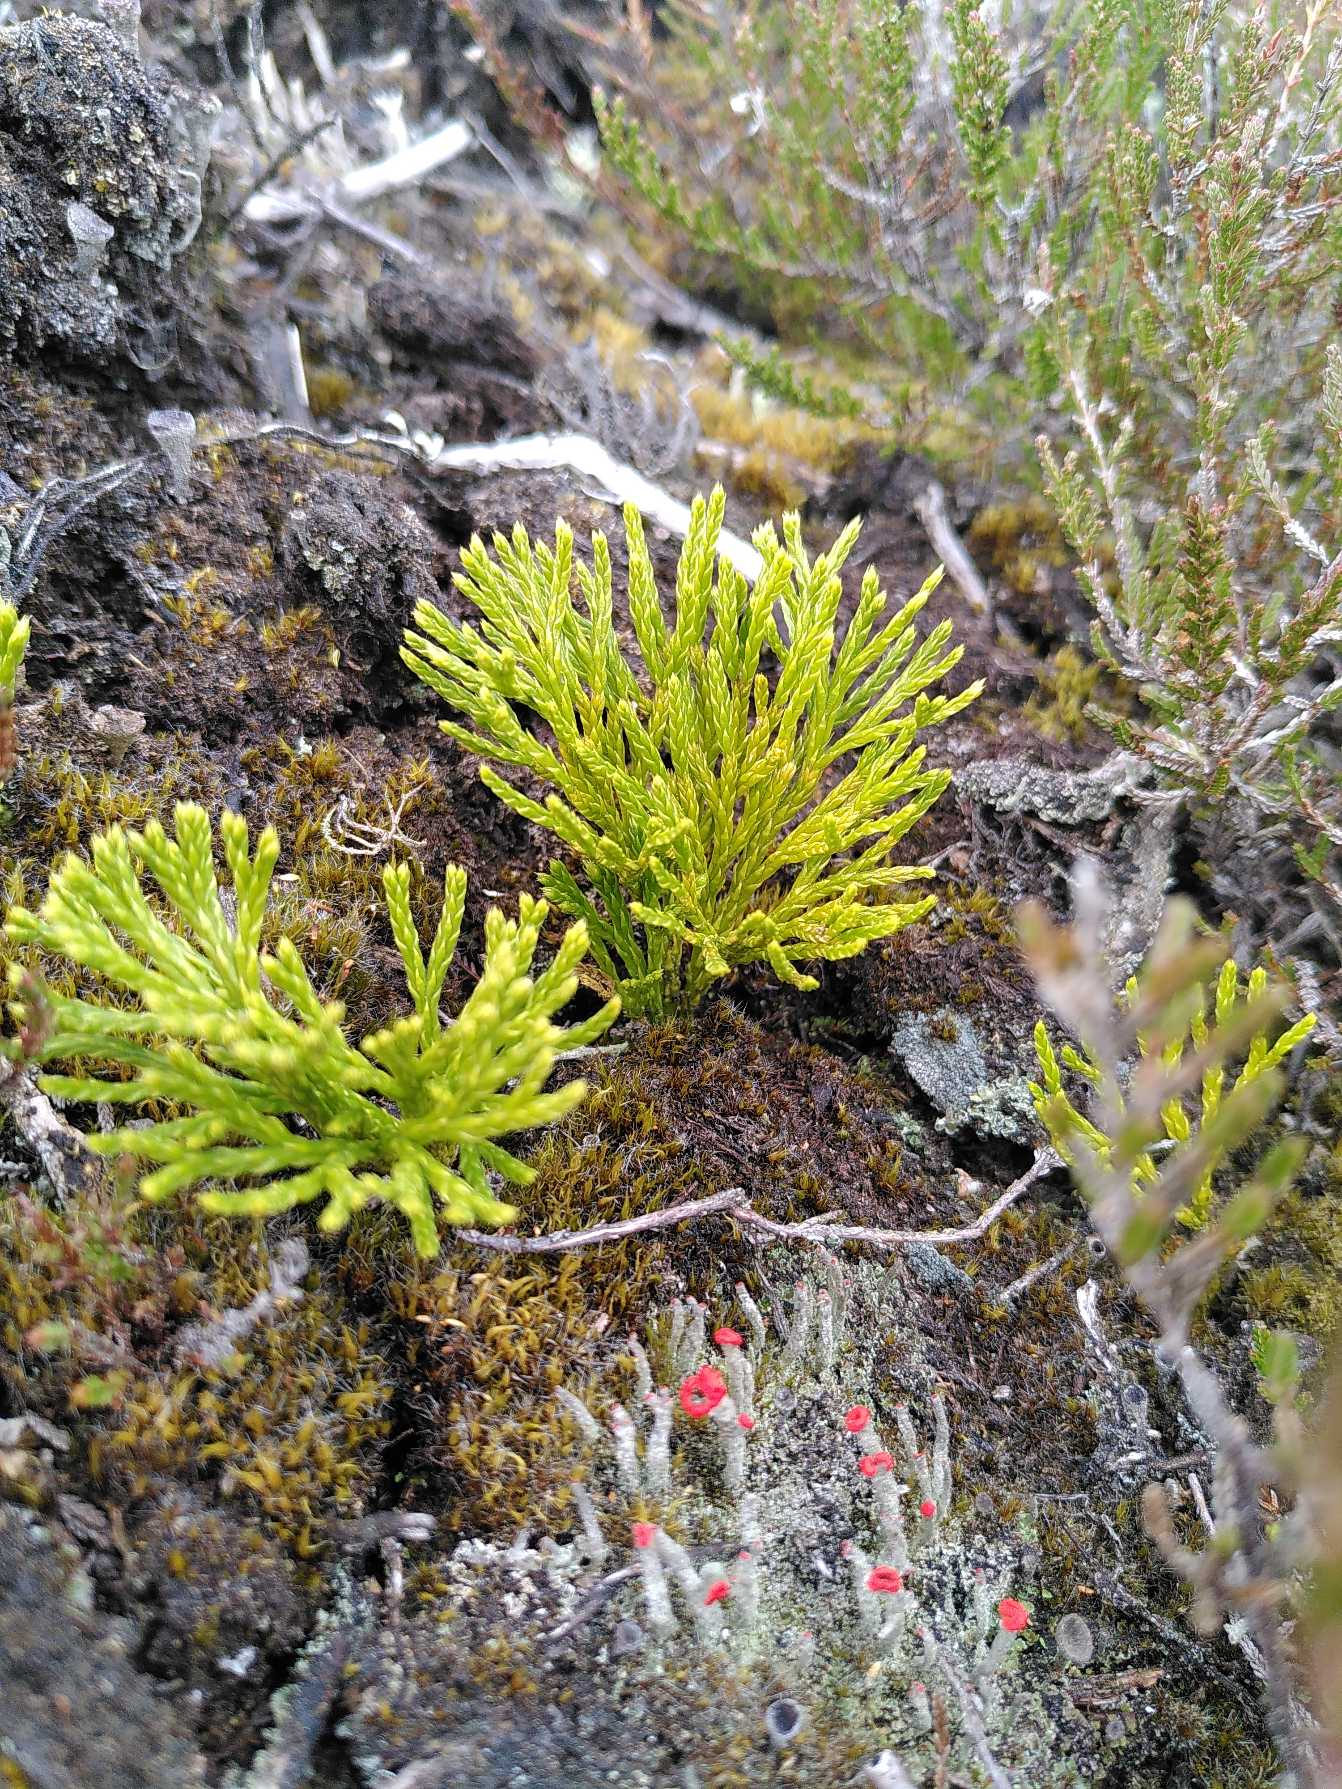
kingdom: Plantae
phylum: Tracheophyta
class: Lycopodiopsida
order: Lycopodiales
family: Lycopodiaceae
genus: Diphasiastrum
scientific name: Diphasiastrum tristachyum
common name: Flad ulvefod × cypres-ulvefod
